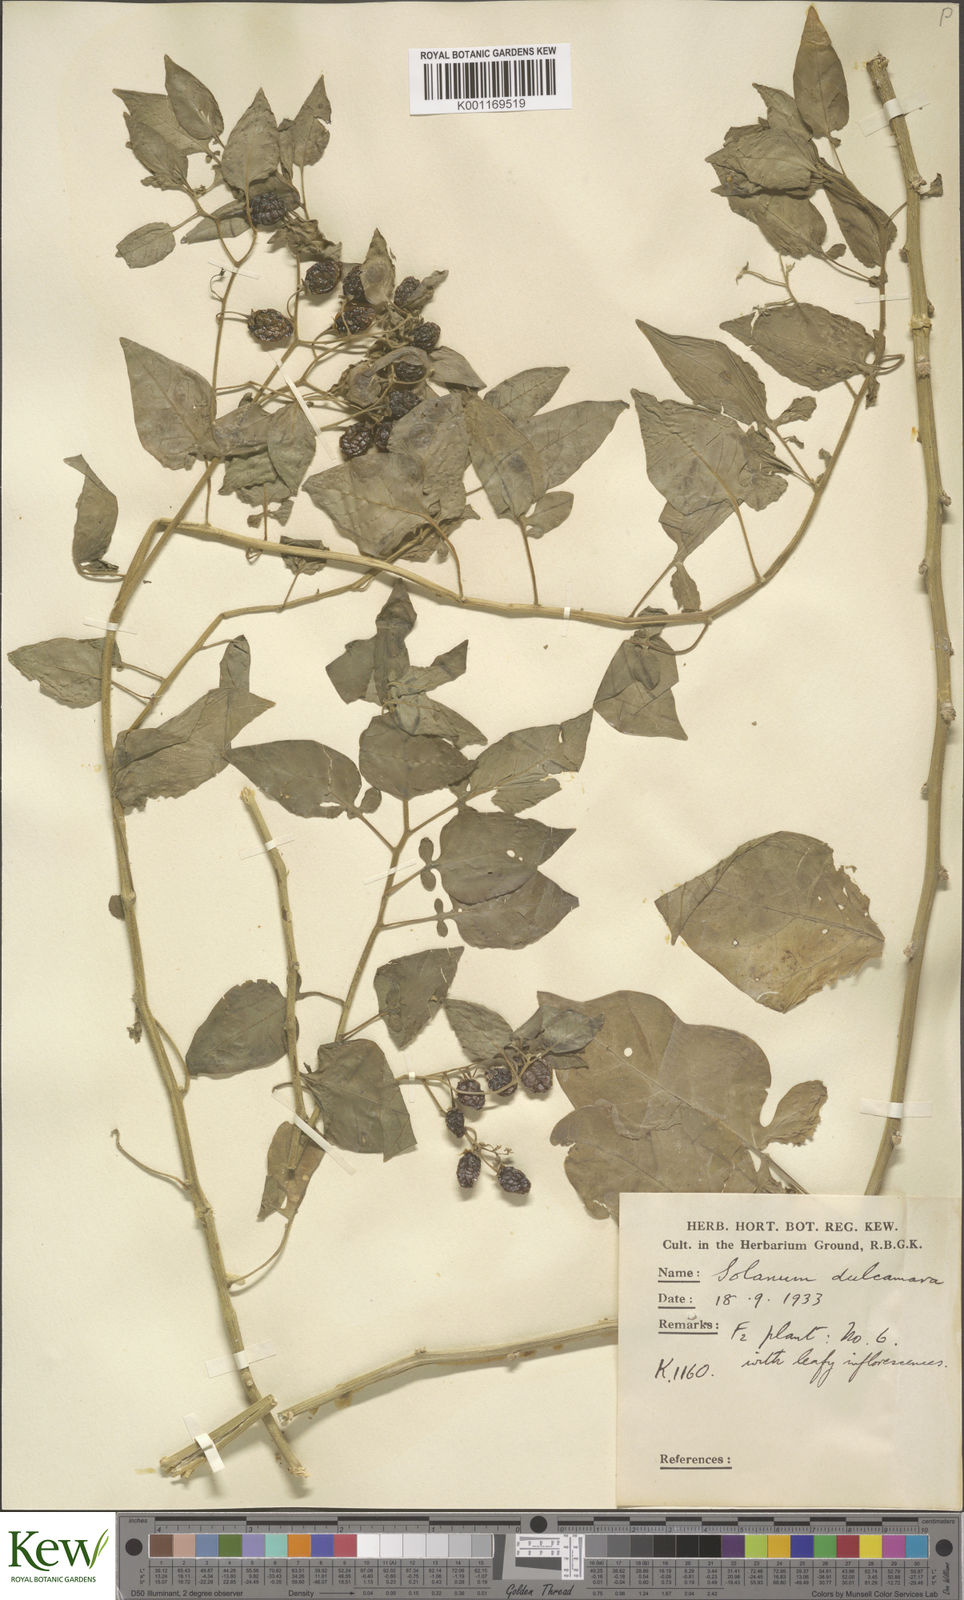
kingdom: Plantae
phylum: Tracheophyta
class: Magnoliopsida
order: Solanales
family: Solanaceae
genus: Solanum
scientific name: Solanum dulcamara
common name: Climbing nightshade
